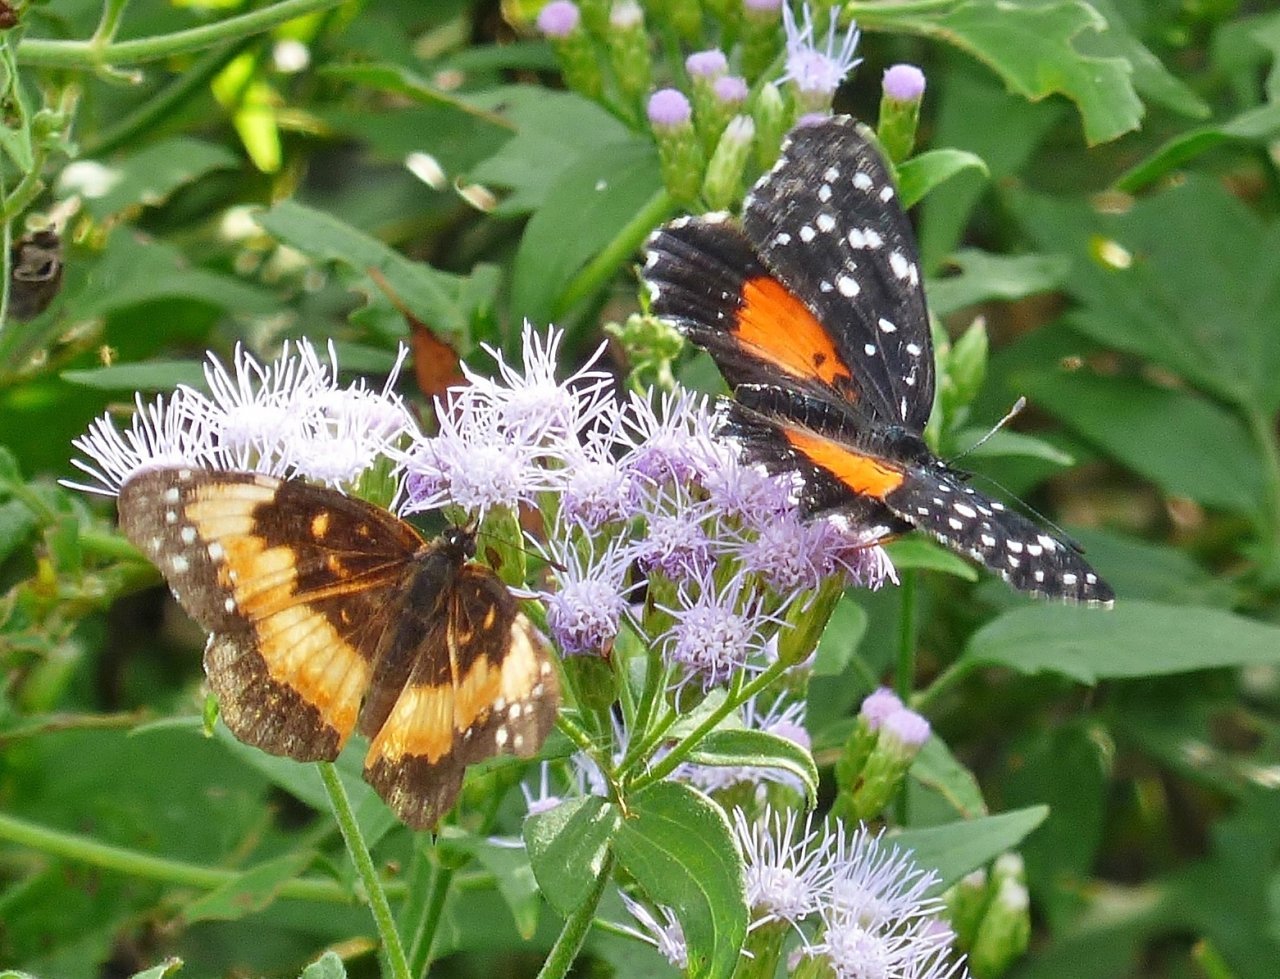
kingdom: Animalia
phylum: Arthropoda
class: Insecta
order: Lepidoptera
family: Nymphalidae
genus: Chlosyne
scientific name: Chlosyne lacinia
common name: Bordered Patch
